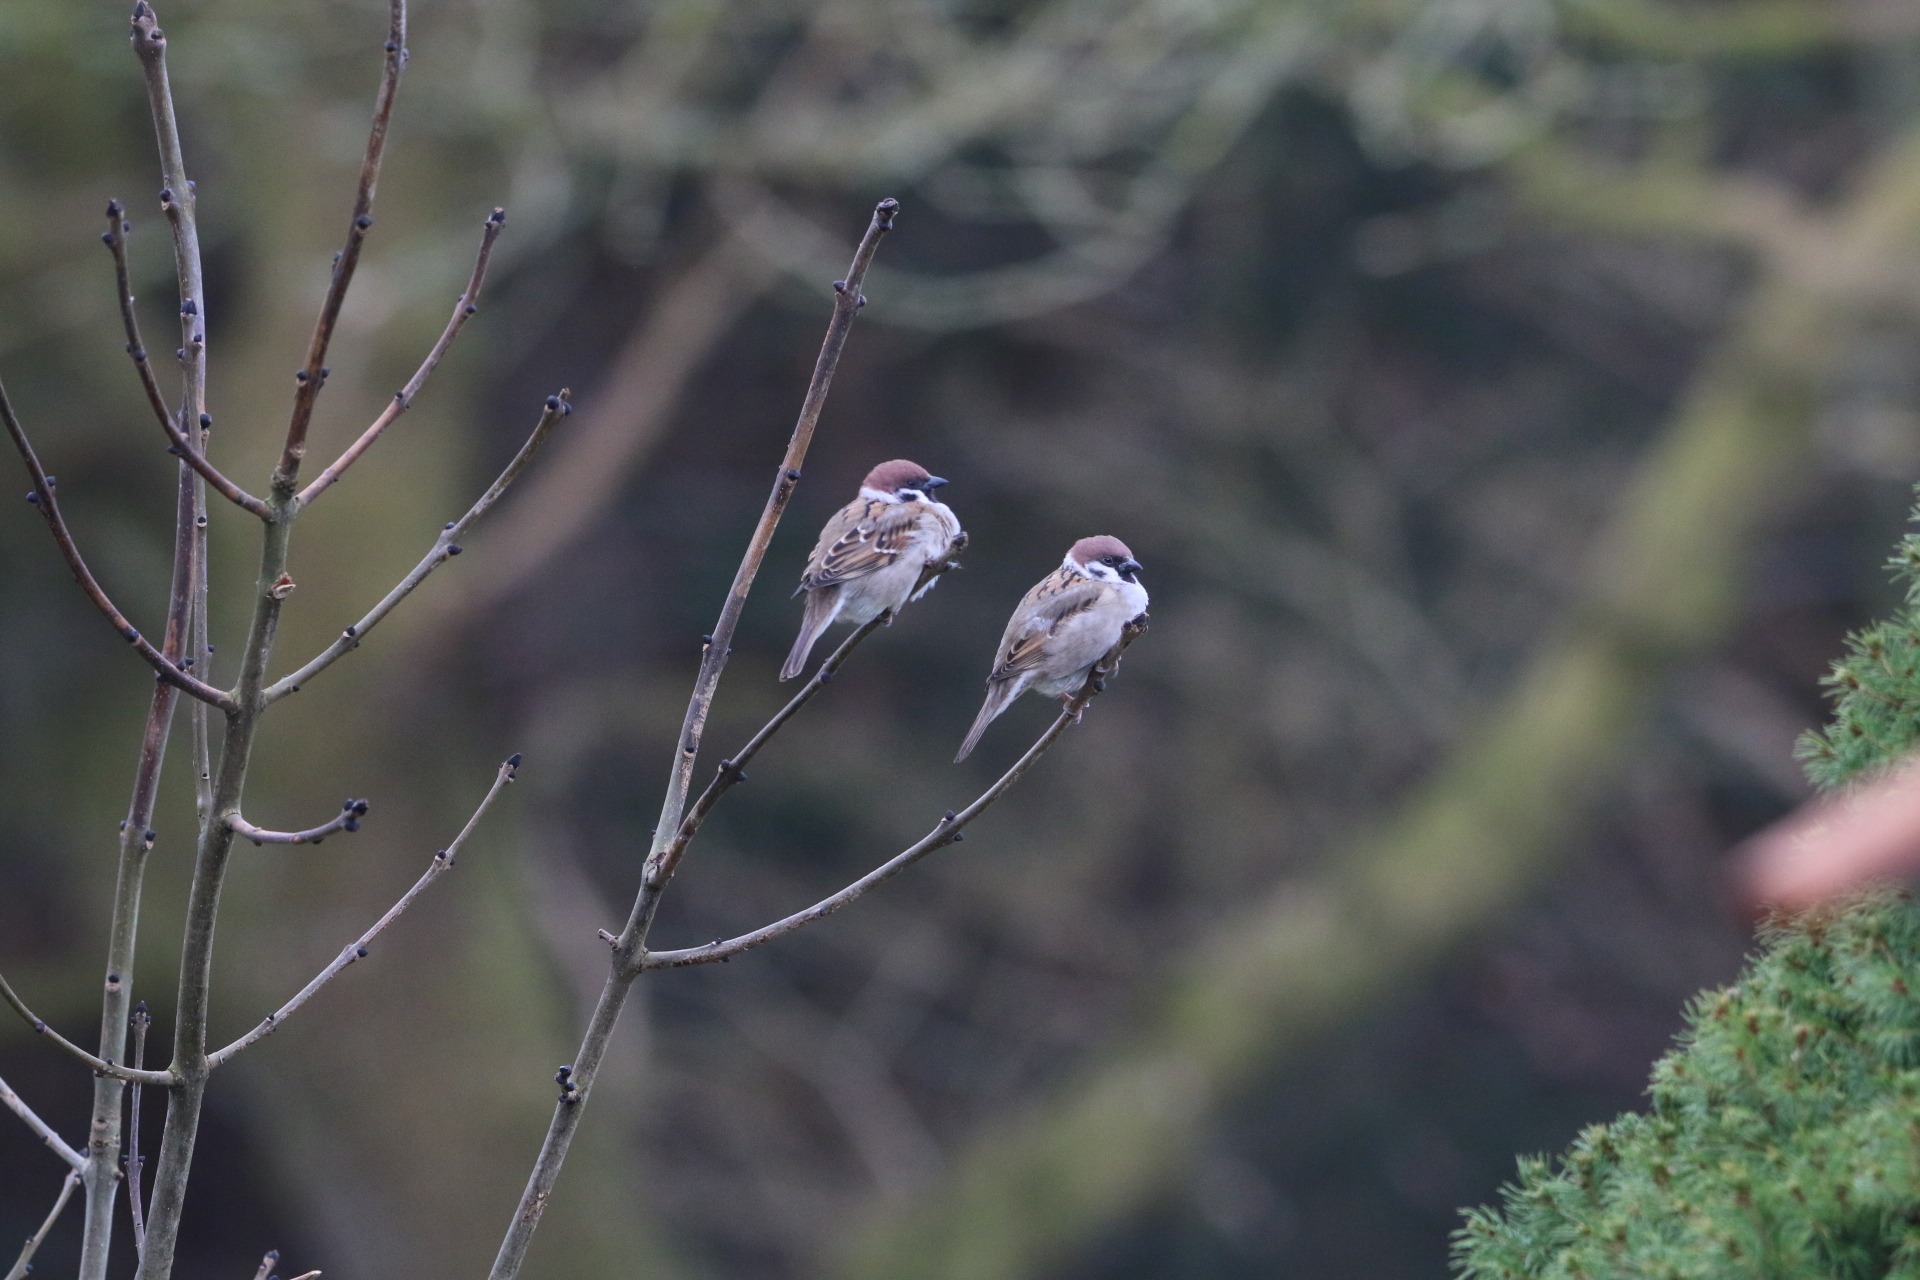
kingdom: Animalia
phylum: Chordata
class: Aves
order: Passeriformes
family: Passeridae
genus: Passer
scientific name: Passer montanus
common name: Skovspurv
